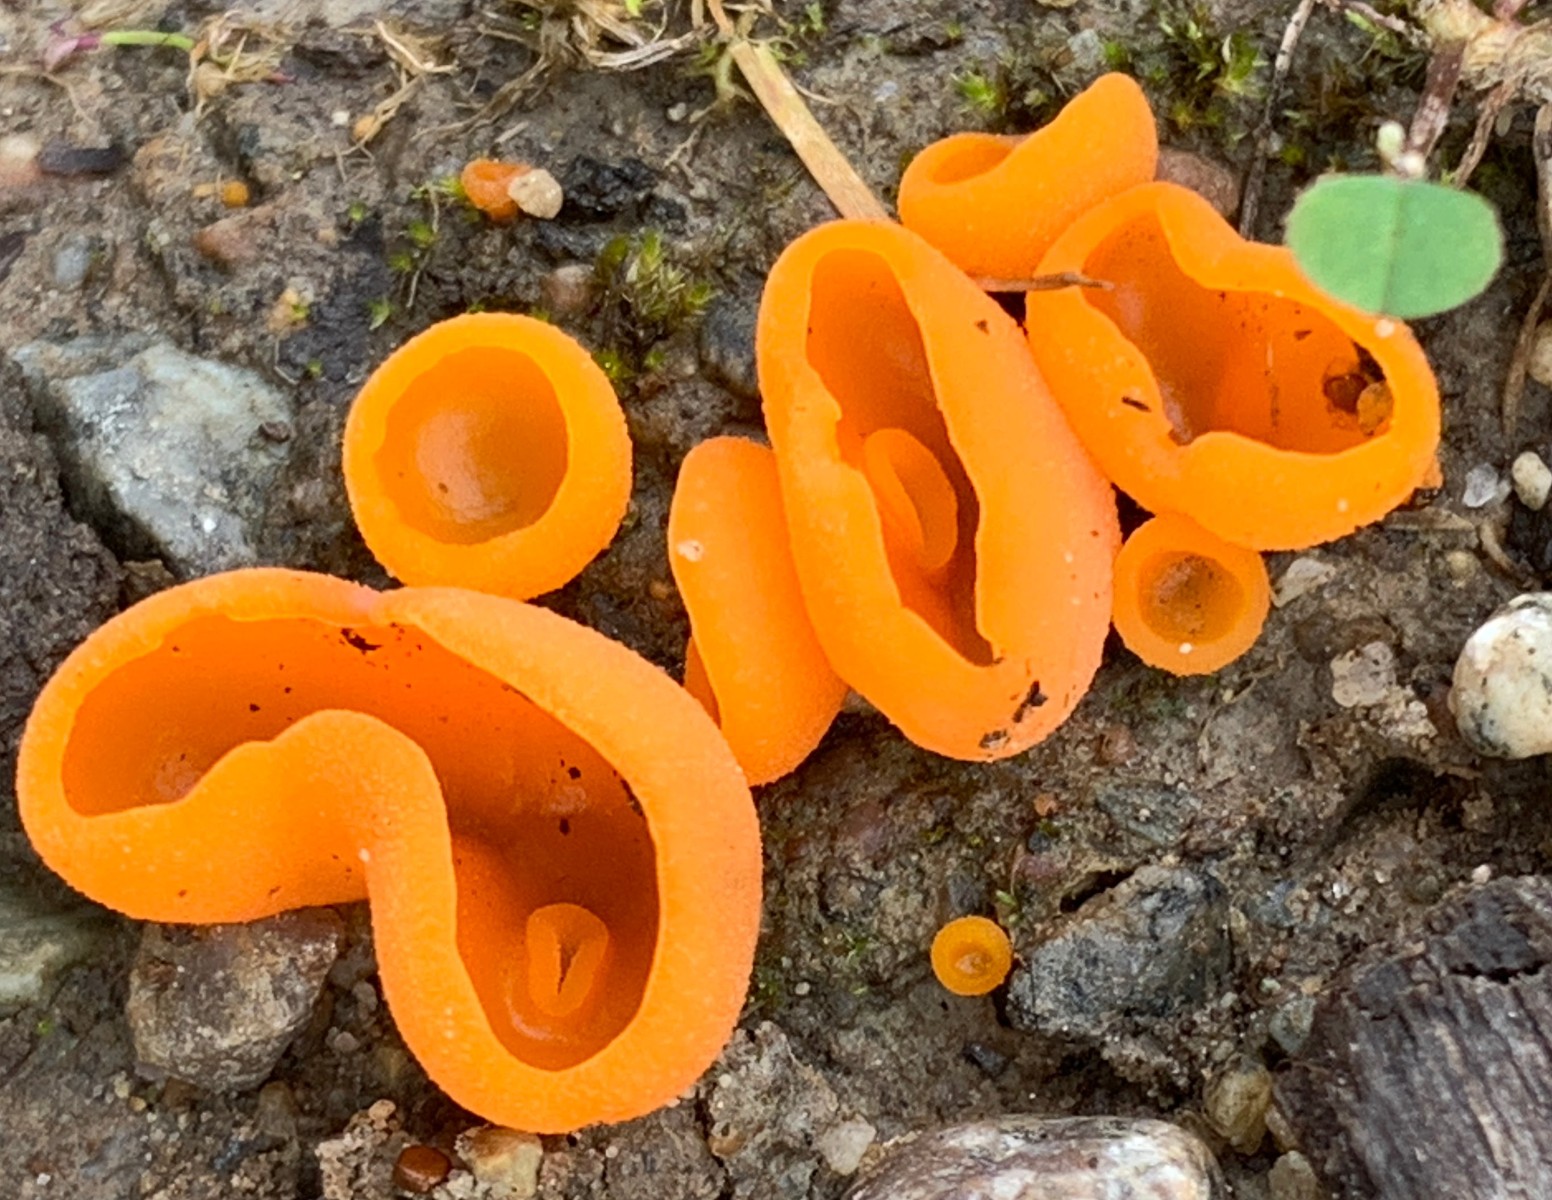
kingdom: Fungi
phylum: Ascomycota
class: Pezizomycetes
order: Pezizales
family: Pyronemataceae
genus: Aleuria
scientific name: Aleuria aurantia
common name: almindelig orangebæger
